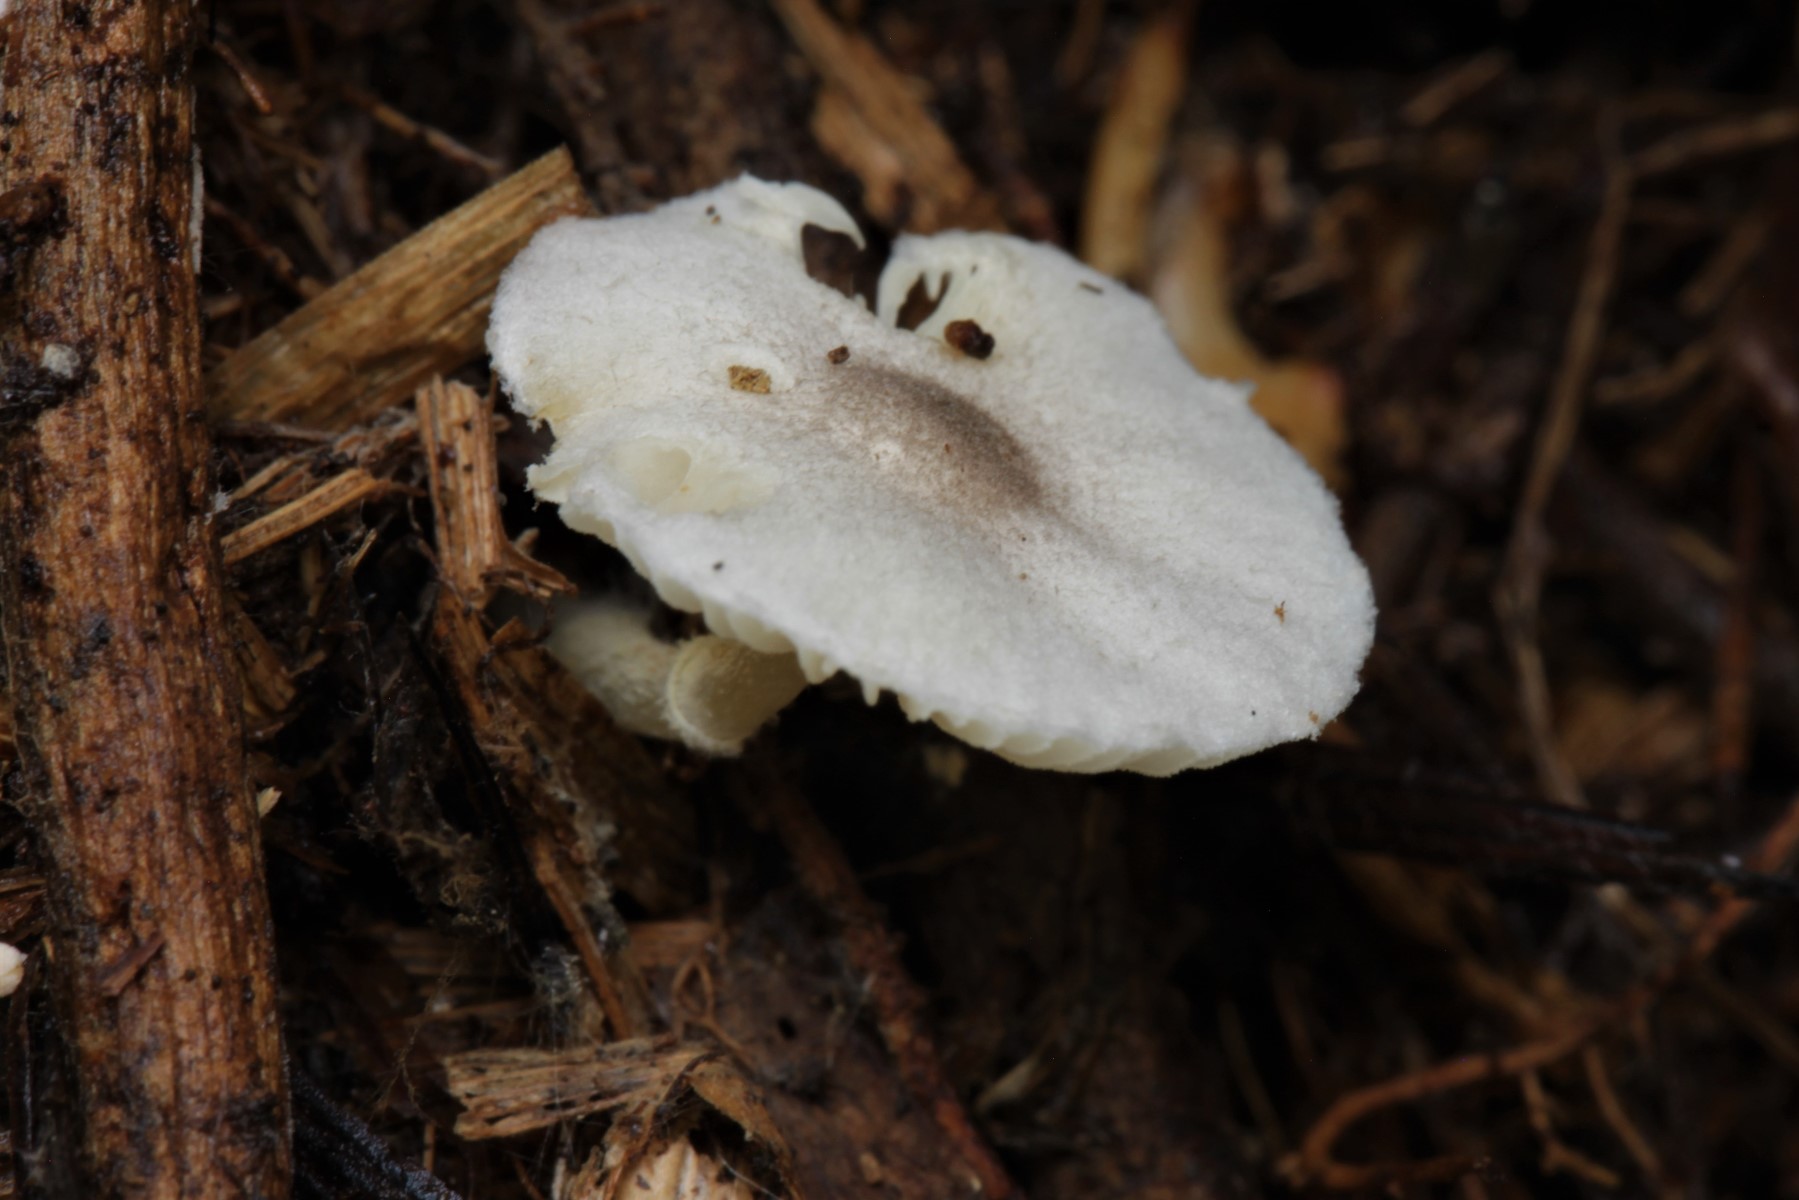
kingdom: Fungi
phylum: Basidiomycota
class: Agaricomycetes
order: Agaricales
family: Agaricaceae
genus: Leucoagaricus
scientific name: Leucoagaricus melanotrichus
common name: gråhåret silkehat
